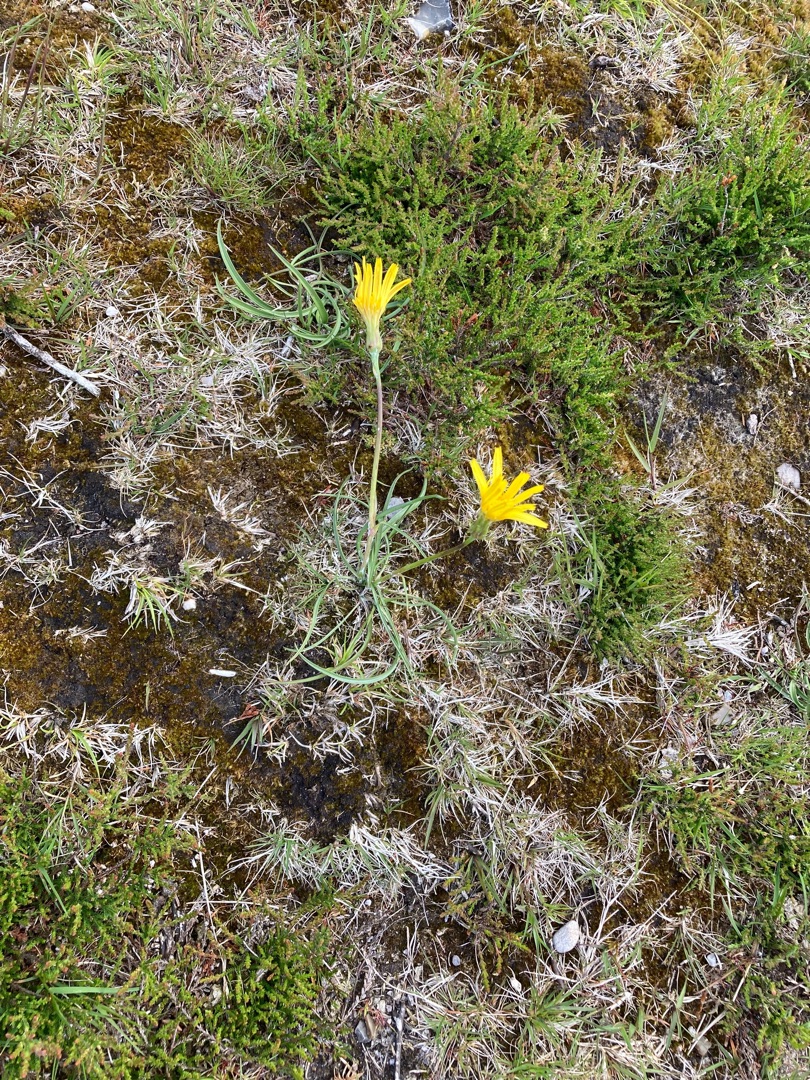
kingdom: Plantae
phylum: Tracheophyta
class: Magnoliopsida
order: Asterales
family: Asteraceae
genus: Scorzonera
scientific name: Scorzonera humilis
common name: Lav skorsoner
